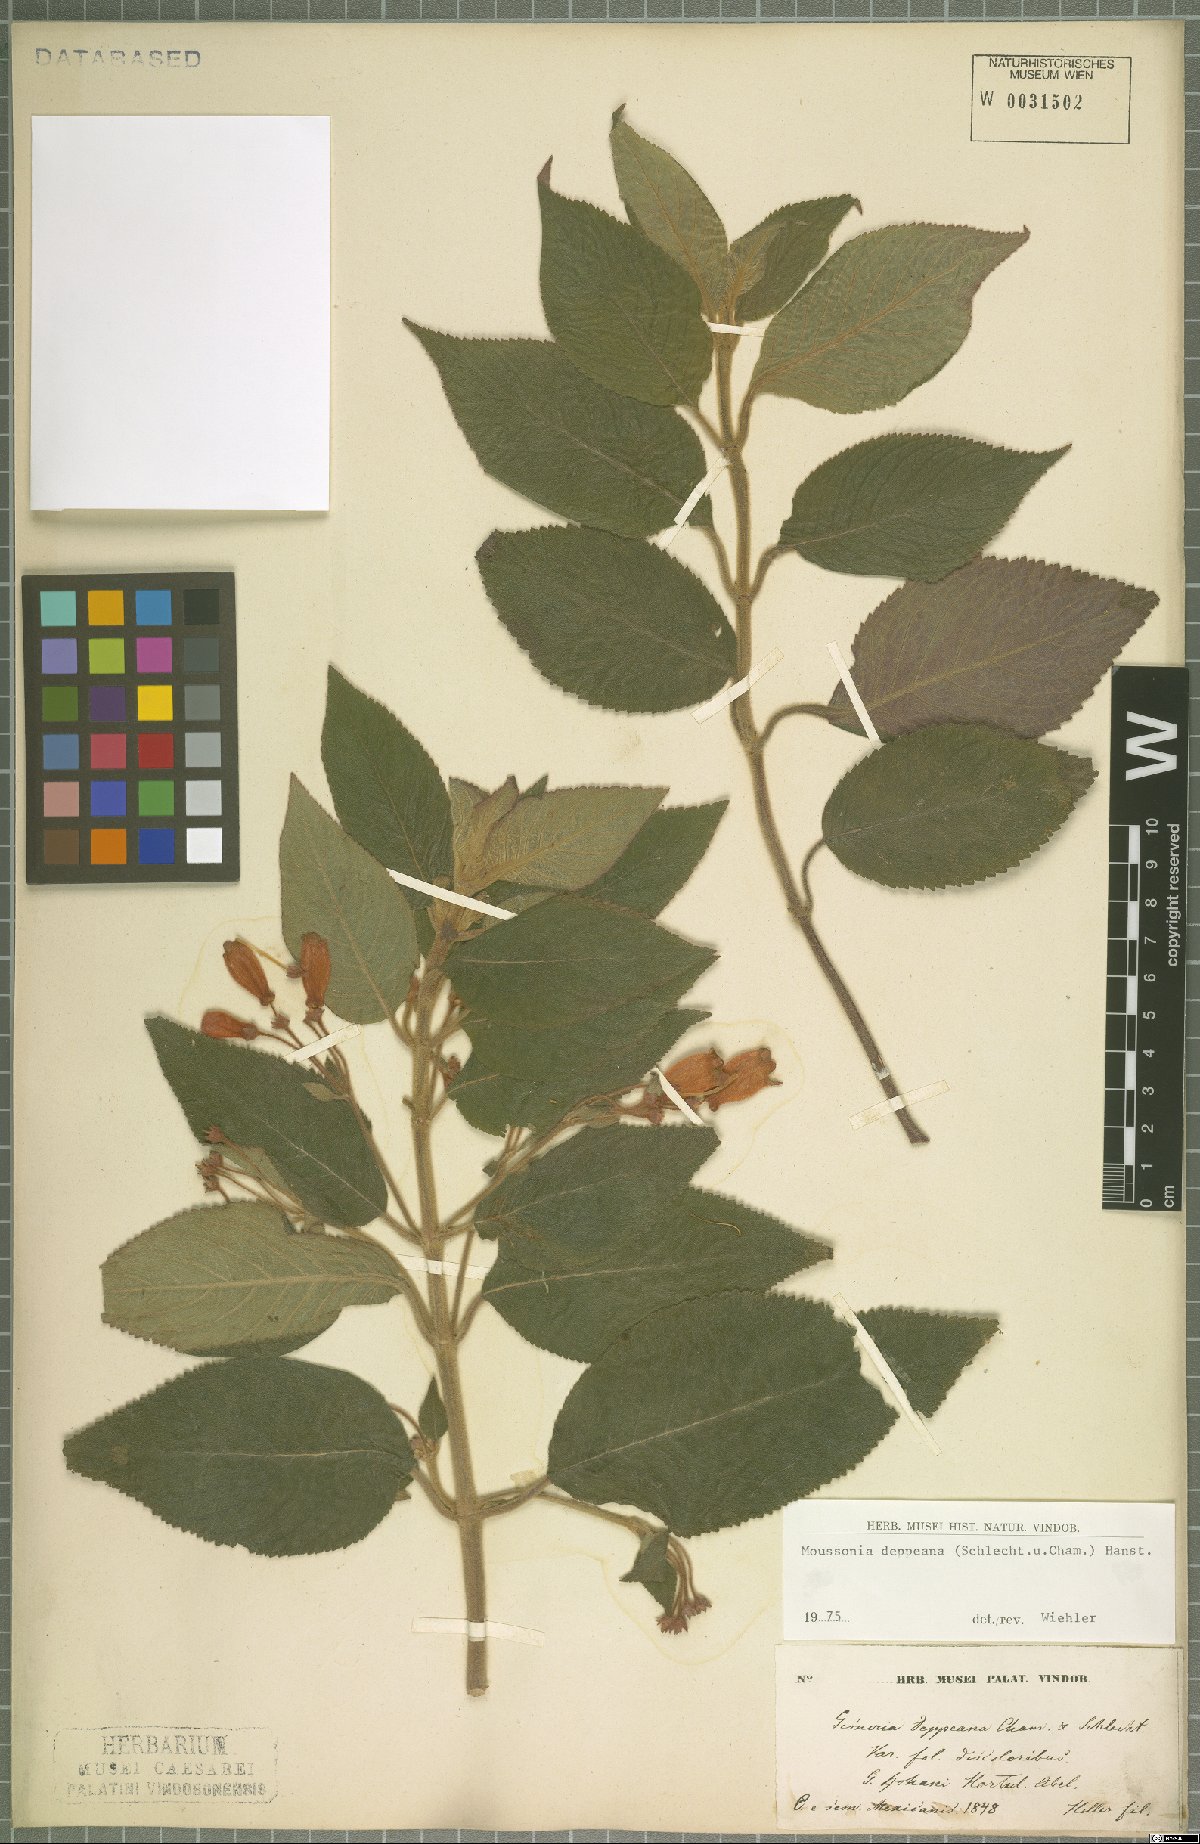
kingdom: Plantae
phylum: Tracheophyta
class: Magnoliopsida
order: Lamiales
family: Gesneriaceae
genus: Moussonia
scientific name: Moussonia deppeana
